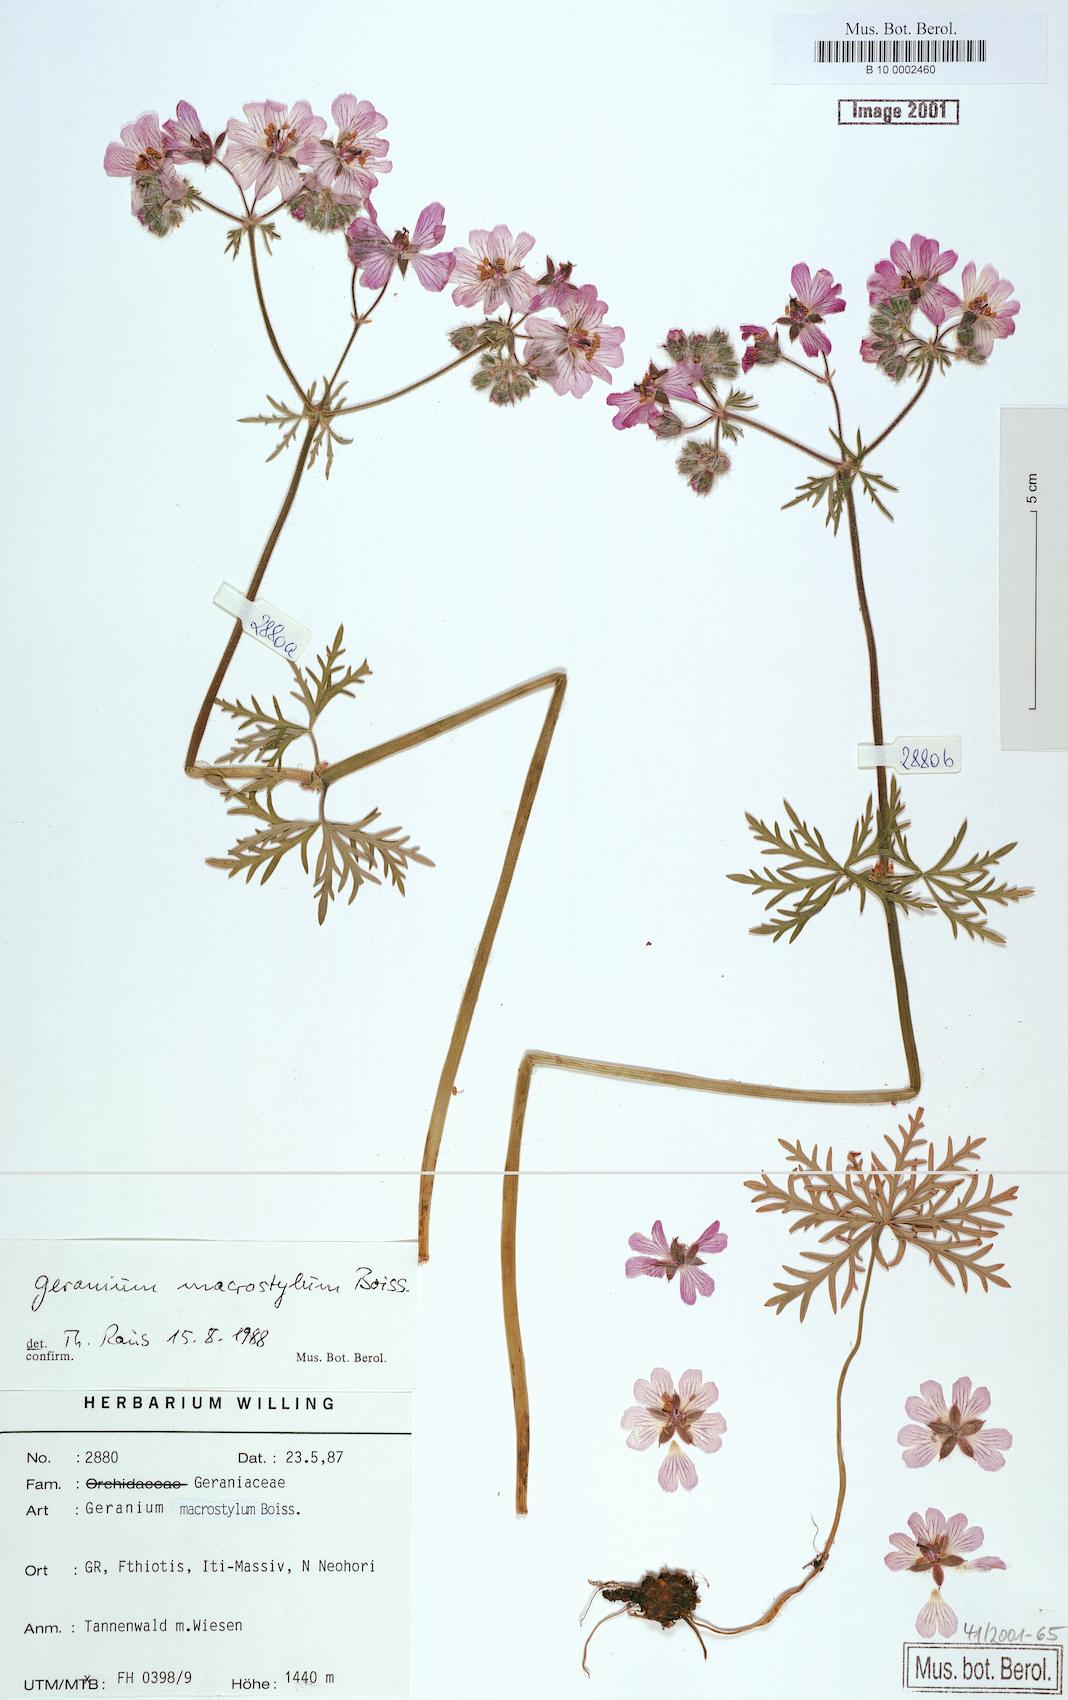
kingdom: Plantae
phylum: Tracheophyta
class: Magnoliopsida
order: Geraniales
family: Geraniaceae
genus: Geranium
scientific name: Geranium macrostylum
